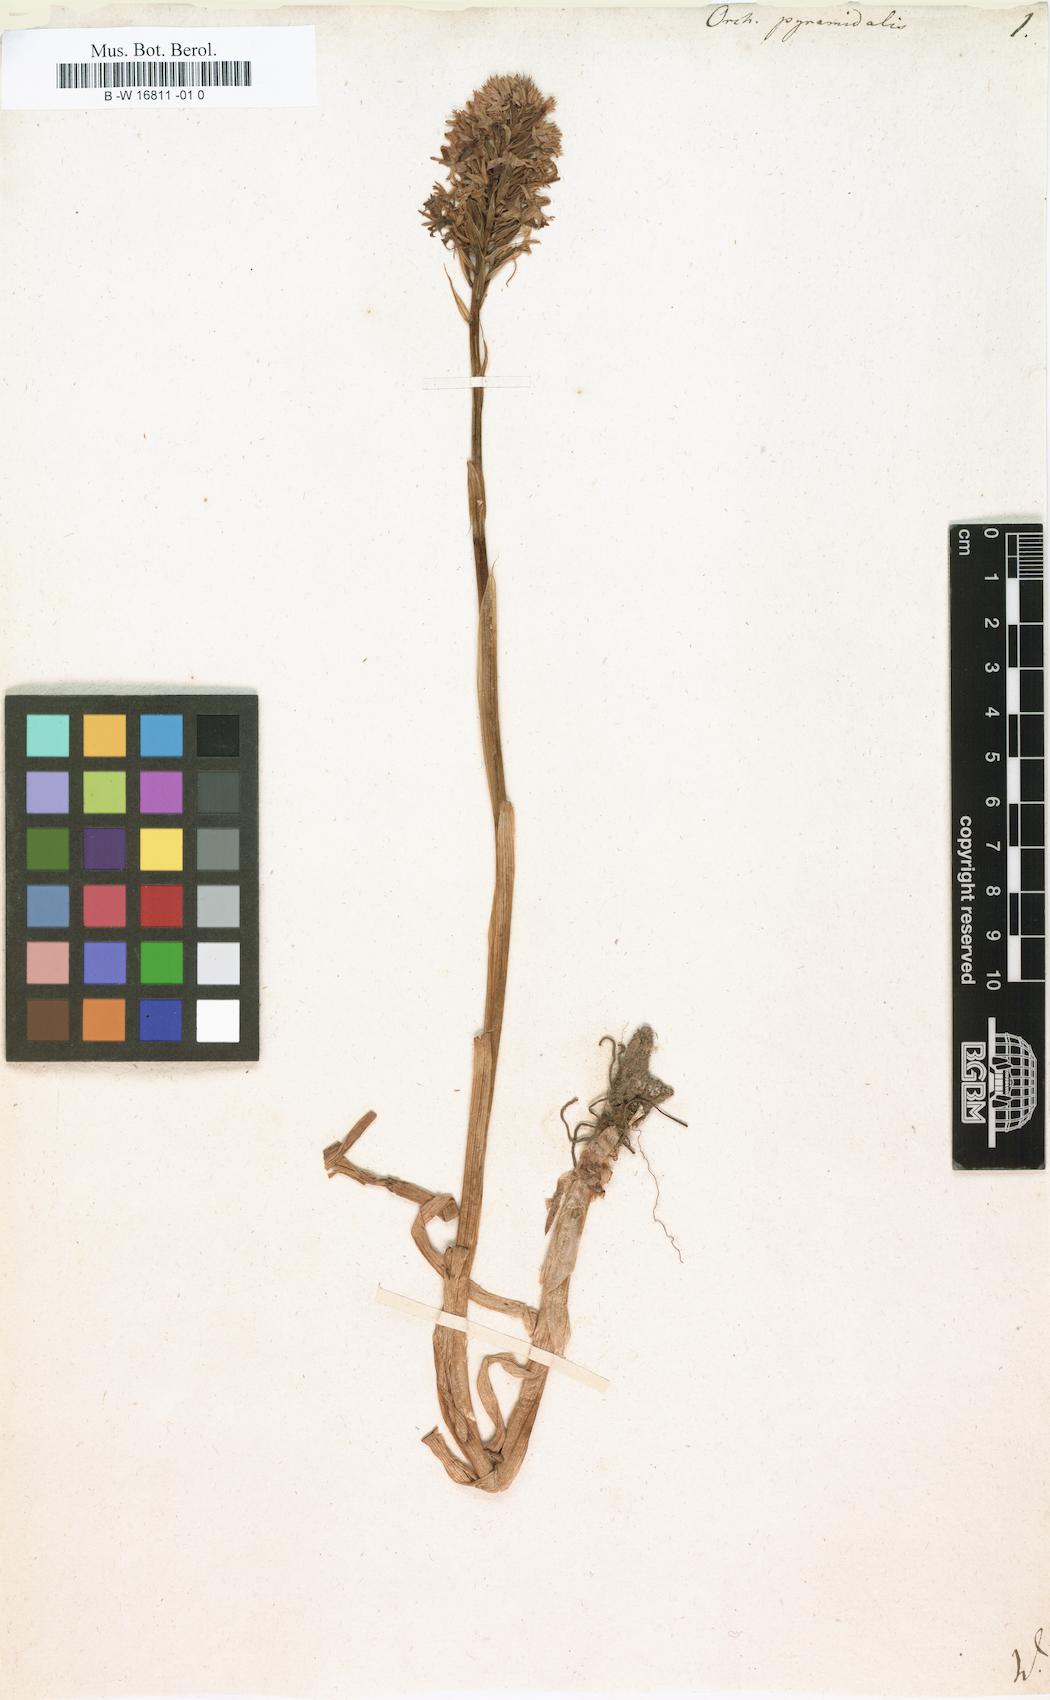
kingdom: Plantae
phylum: Tracheophyta
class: Liliopsida
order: Asparagales
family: Orchidaceae
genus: Anacamptis
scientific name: Anacamptis pyramidalis
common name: Pyramidal orchid
